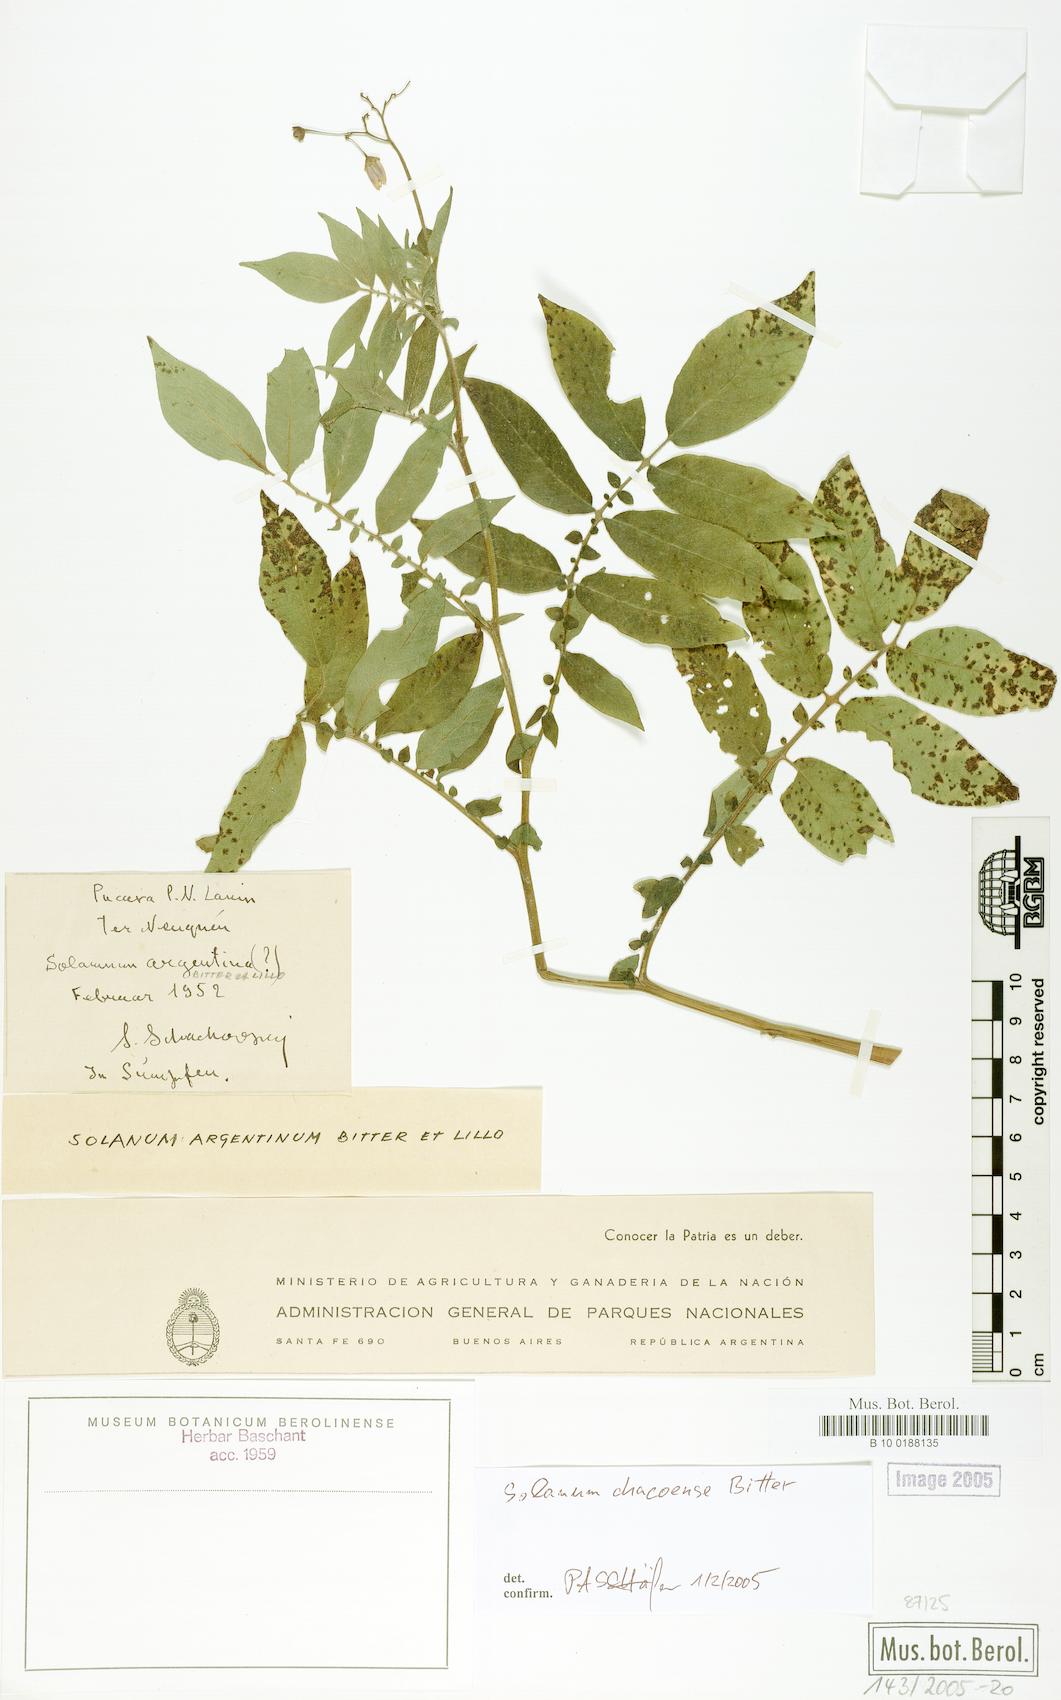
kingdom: Plantae
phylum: Tracheophyta
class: Magnoliopsida
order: Solanales
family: Solanaceae
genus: Solanum
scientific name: Solanum chacoense
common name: Chaco potato
